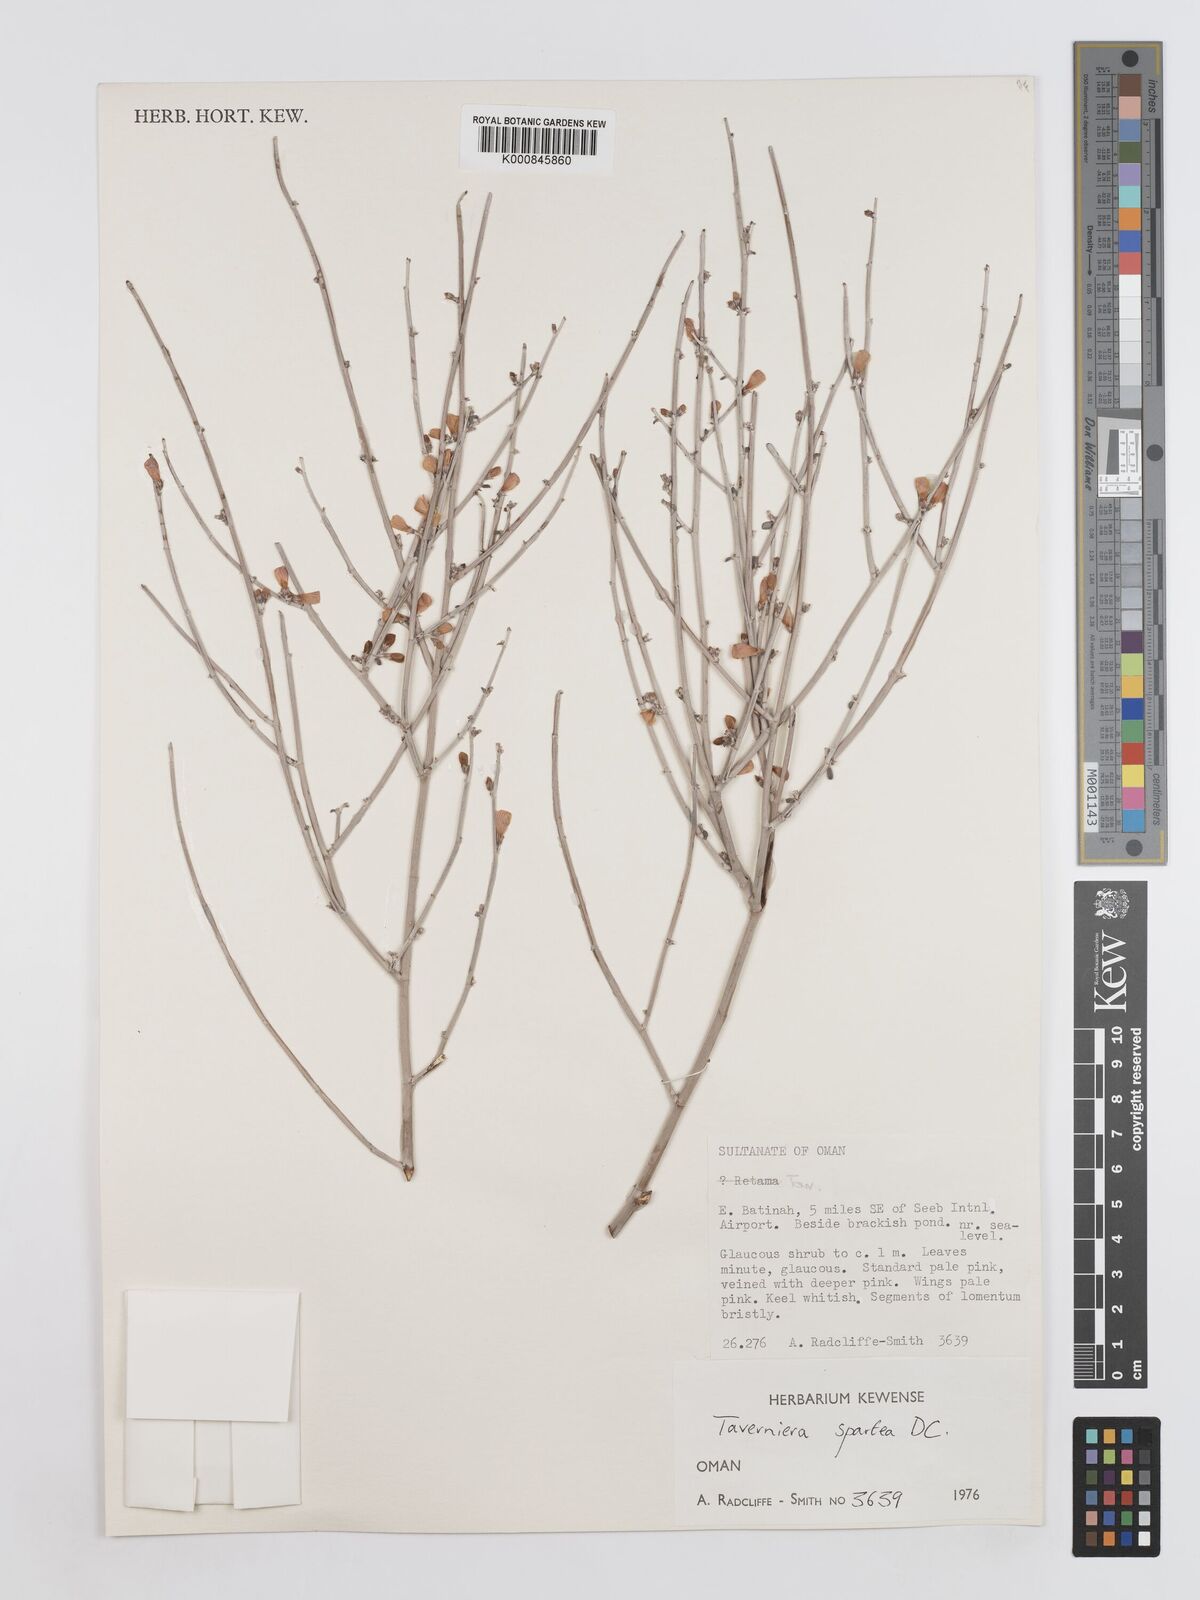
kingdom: Plantae
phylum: Tracheophyta
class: Magnoliopsida
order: Fabales
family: Fabaceae
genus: Taverniera
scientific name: Taverniera spartea
